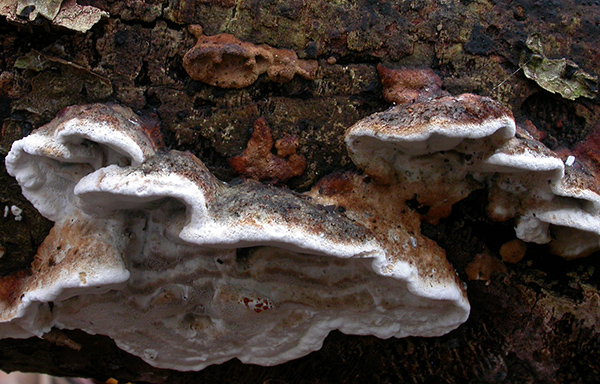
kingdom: Fungi
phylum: Basidiomycota
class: Agaricomycetes
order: Polyporales
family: Incrustoporiaceae
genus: Skeletocutis
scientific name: Skeletocutis nemoralis
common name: stor krystalporesvamp
